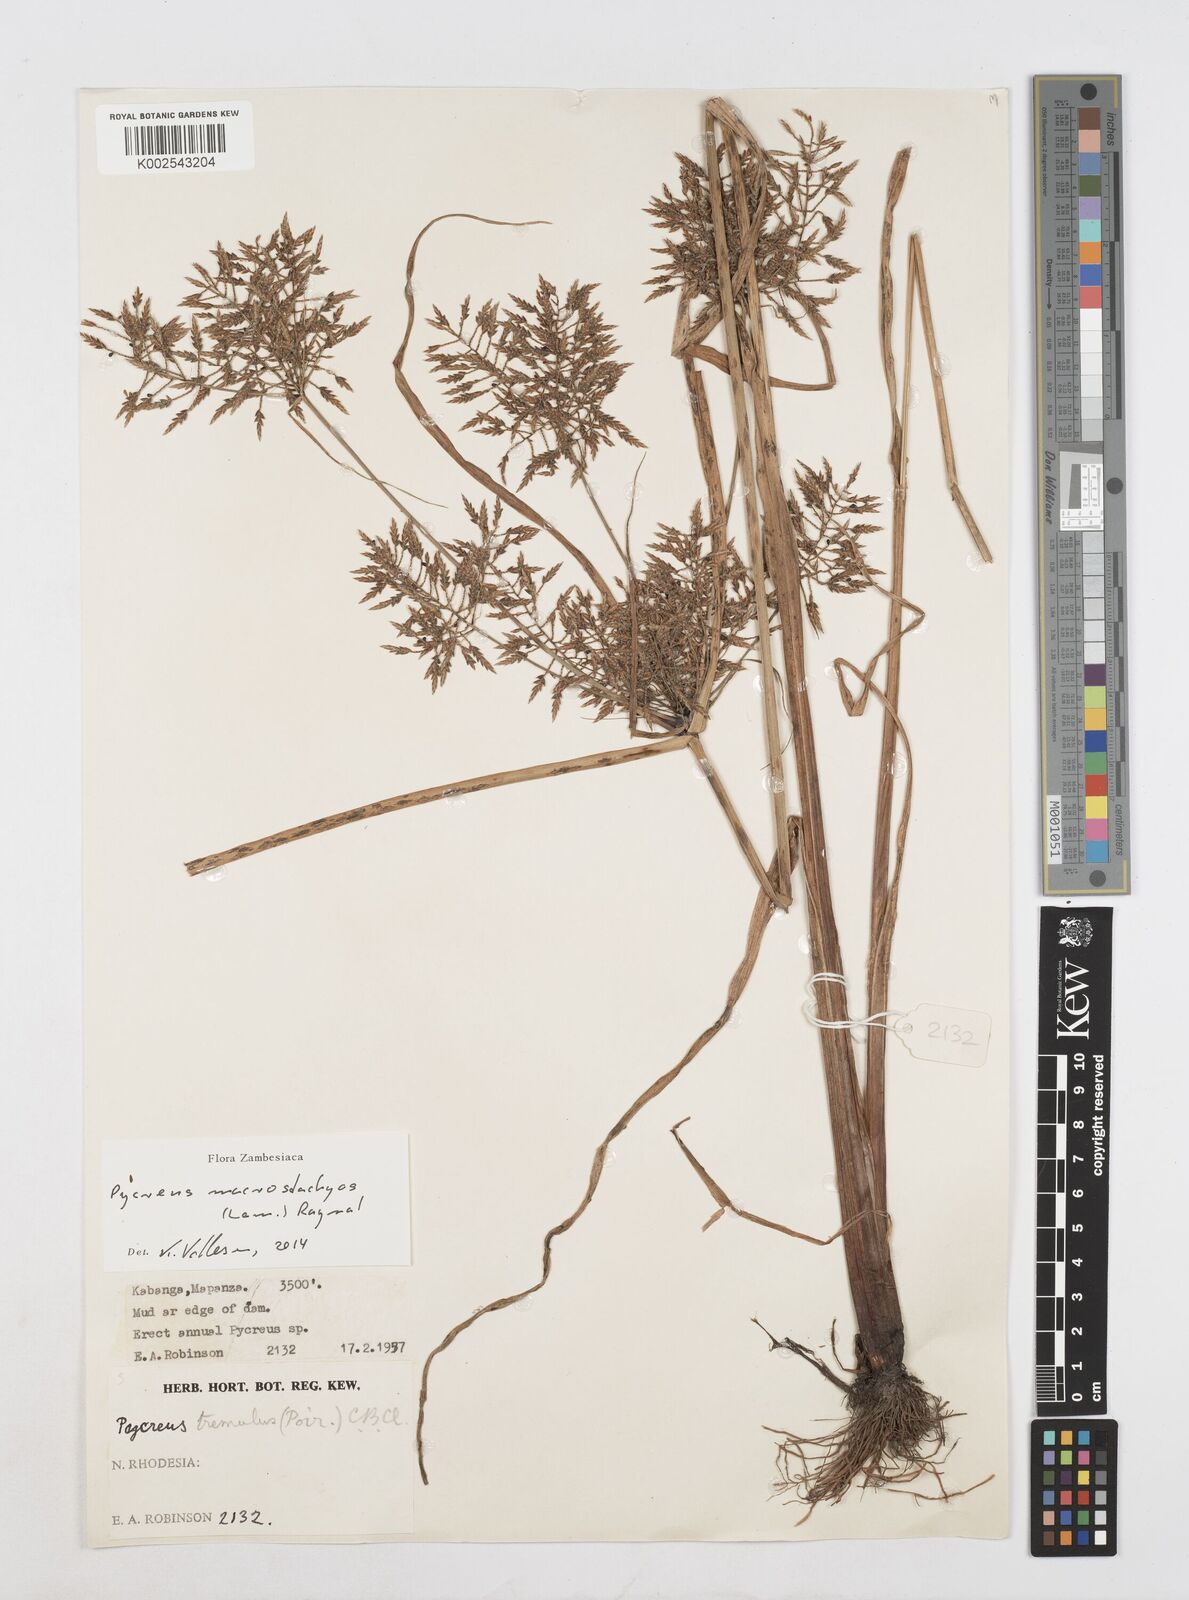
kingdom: Plantae
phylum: Tracheophyta
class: Liliopsida
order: Poales
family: Cyperaceae
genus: Cyperus
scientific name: Cyperus macrostachyos
